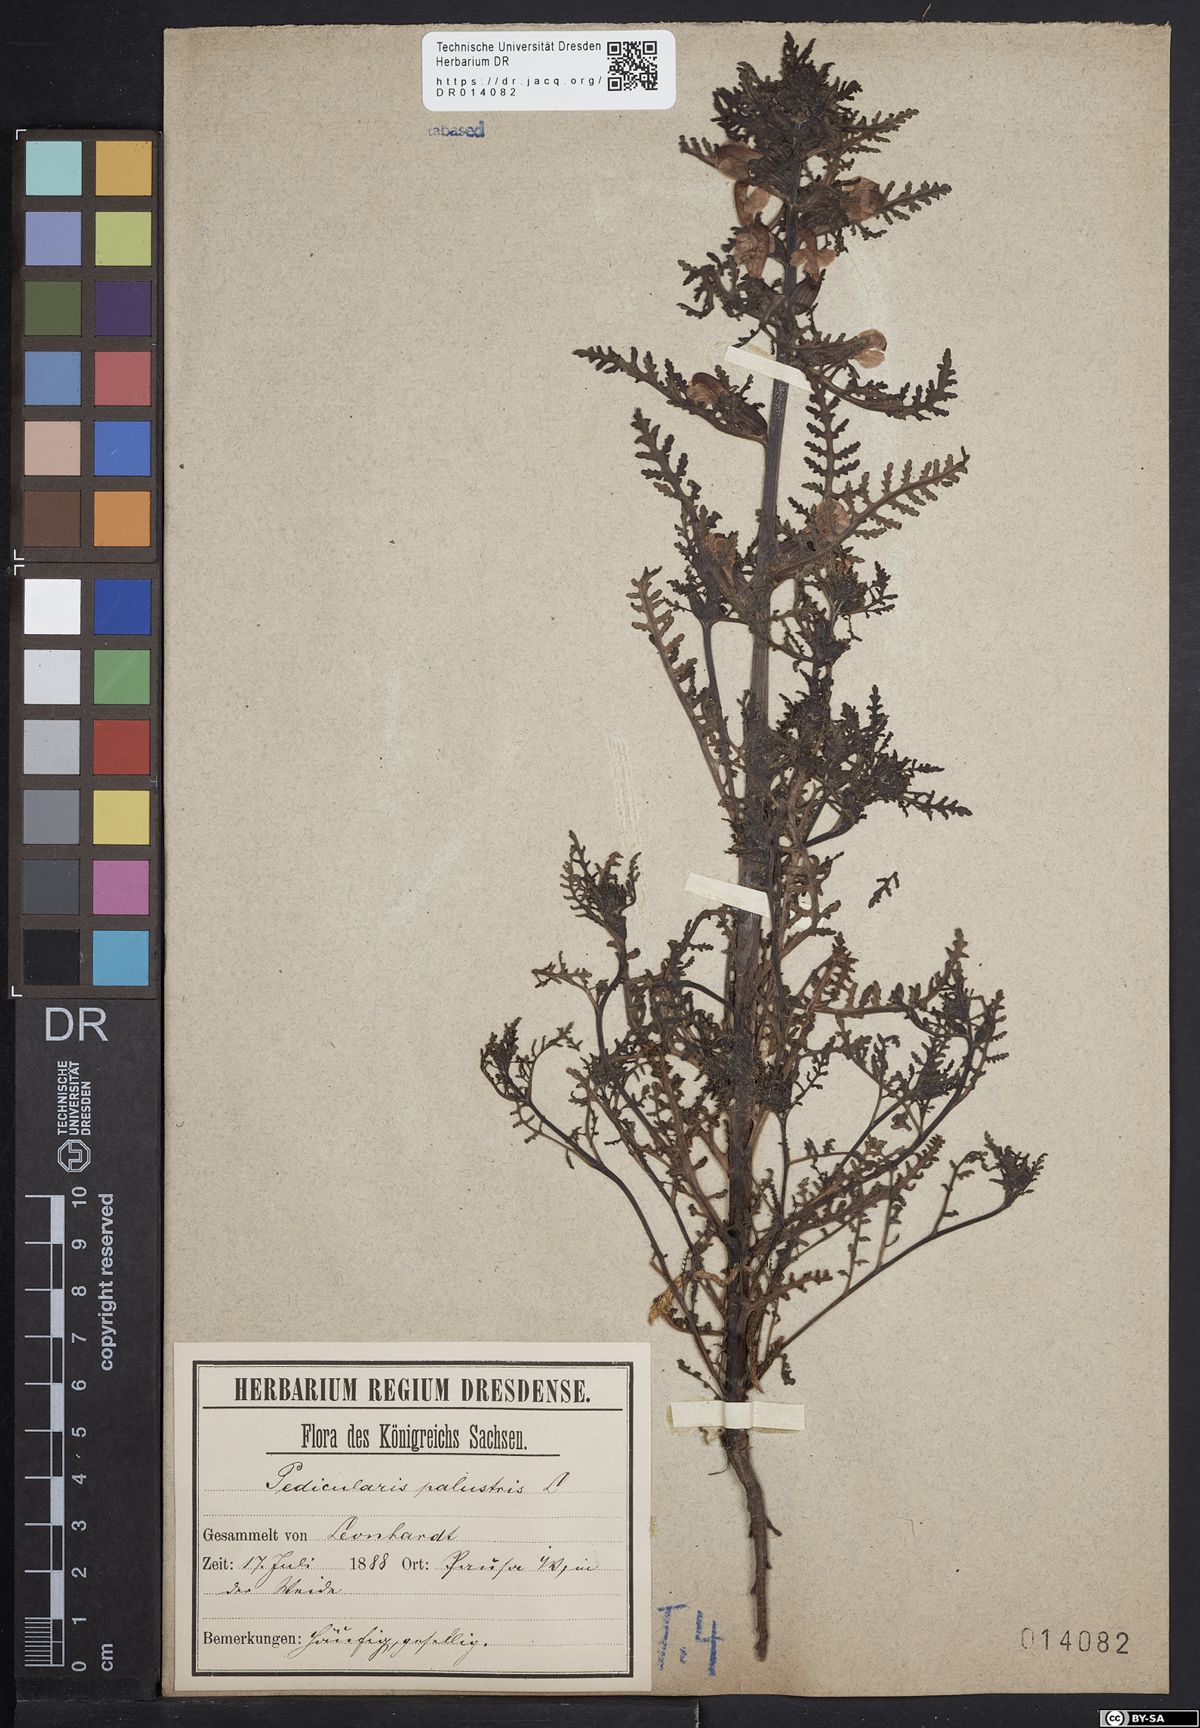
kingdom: Plantae
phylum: Tracheophyta
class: Magnoliopsida
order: Lamiales
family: Orobanchaceae
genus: Pedicularis
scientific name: Pedicularis palustris
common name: Marsh lousewort
